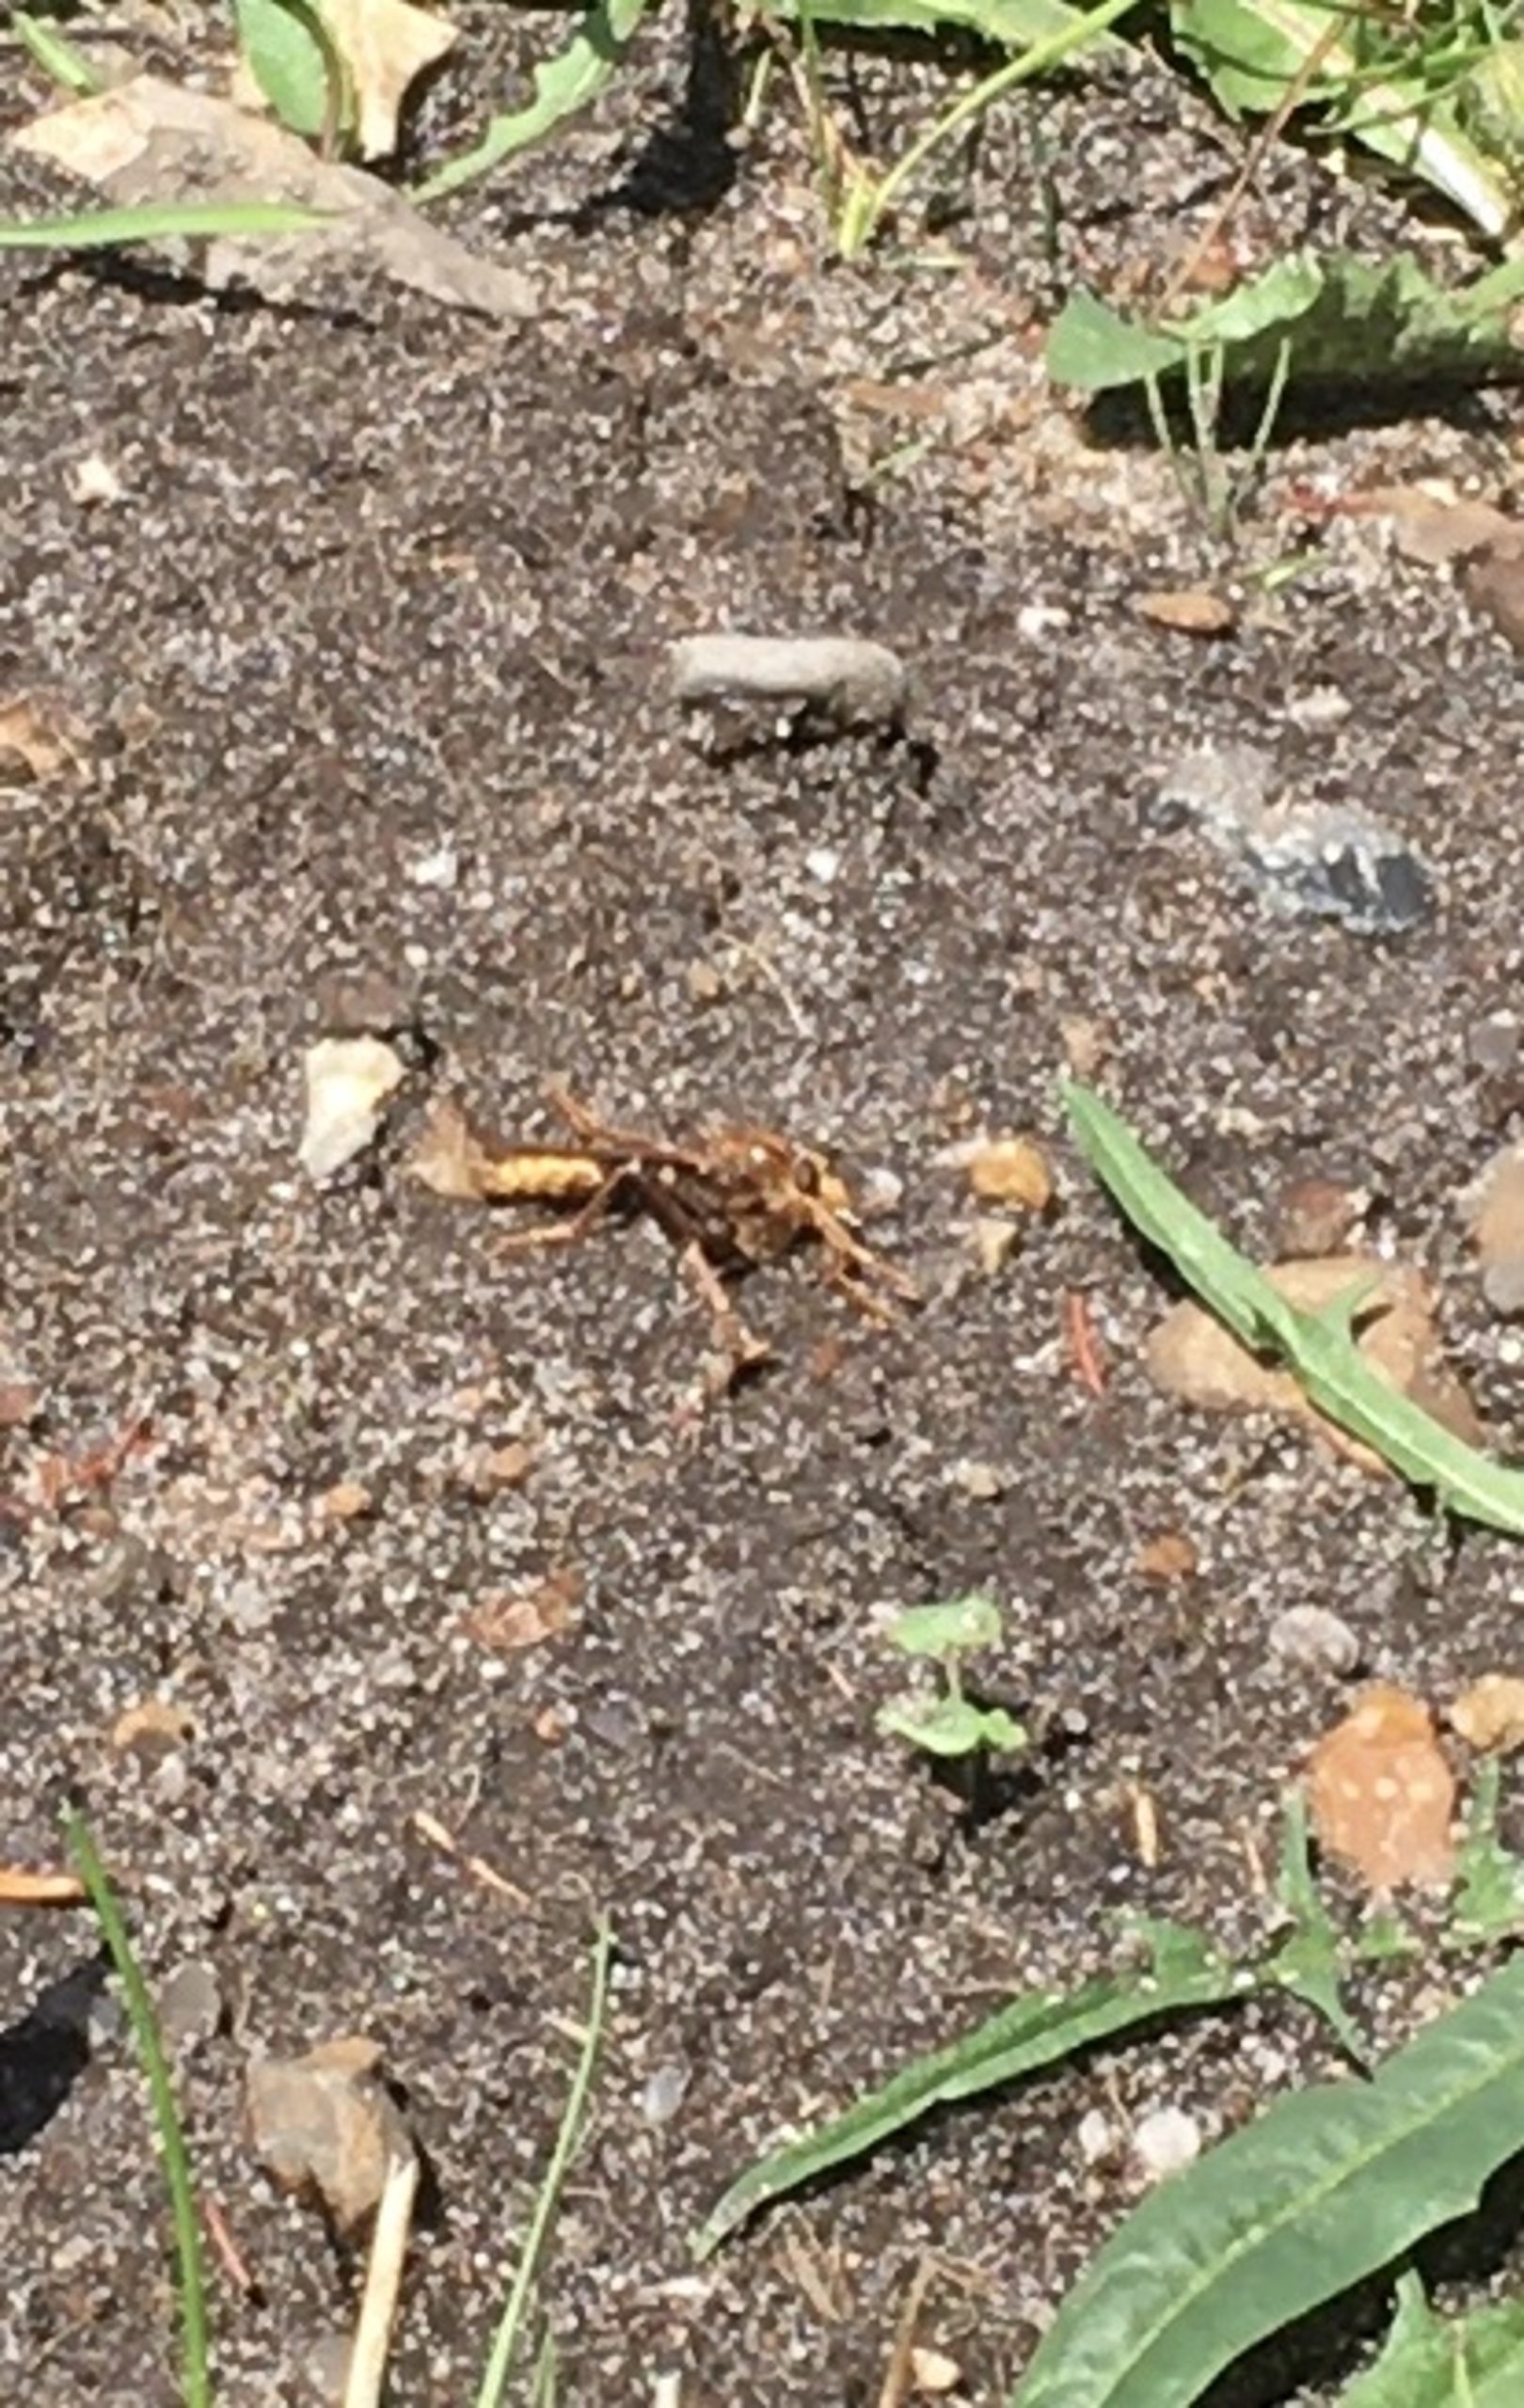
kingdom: Animalia
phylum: Arthropoda
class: Insecta
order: Diptera
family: Asilidae
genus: Asilus
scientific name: Asilus crabroniformis
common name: Stor gødningsrovflue
